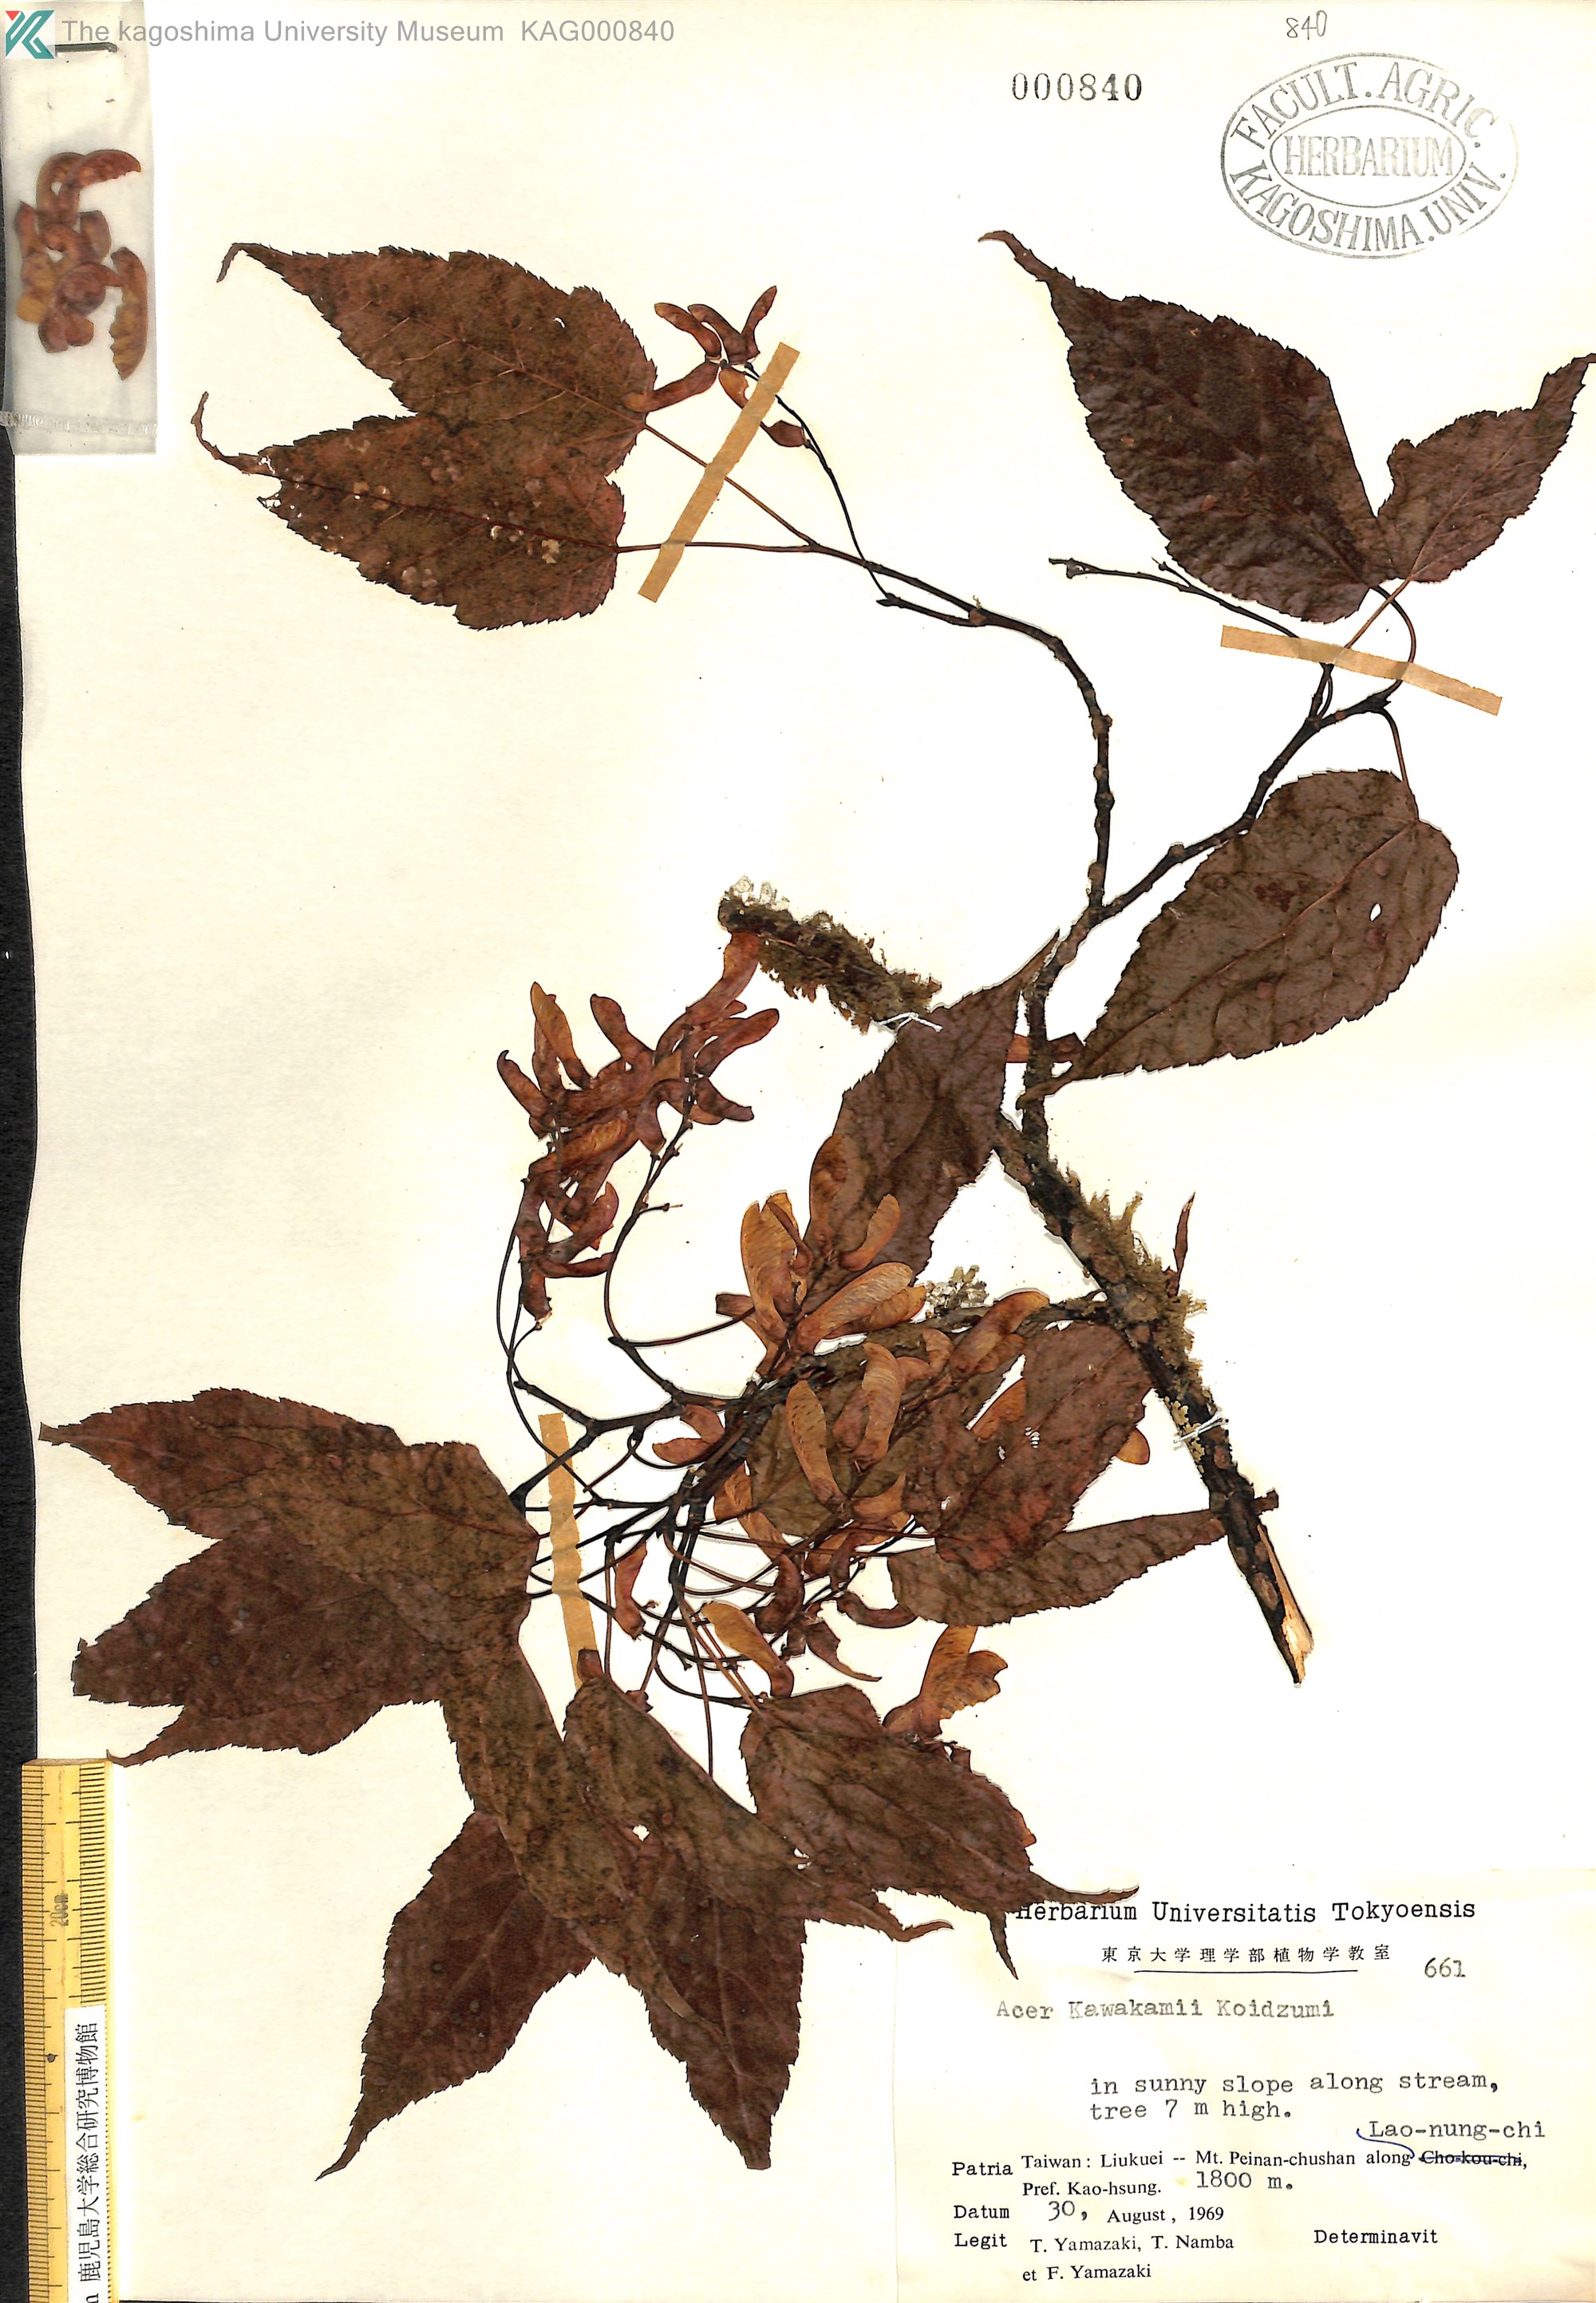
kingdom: Plantae
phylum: Tracheophyta
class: Magnoliopsida
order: Sapindales
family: Sapindaceae
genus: Acer
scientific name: Acer caudatifolium
